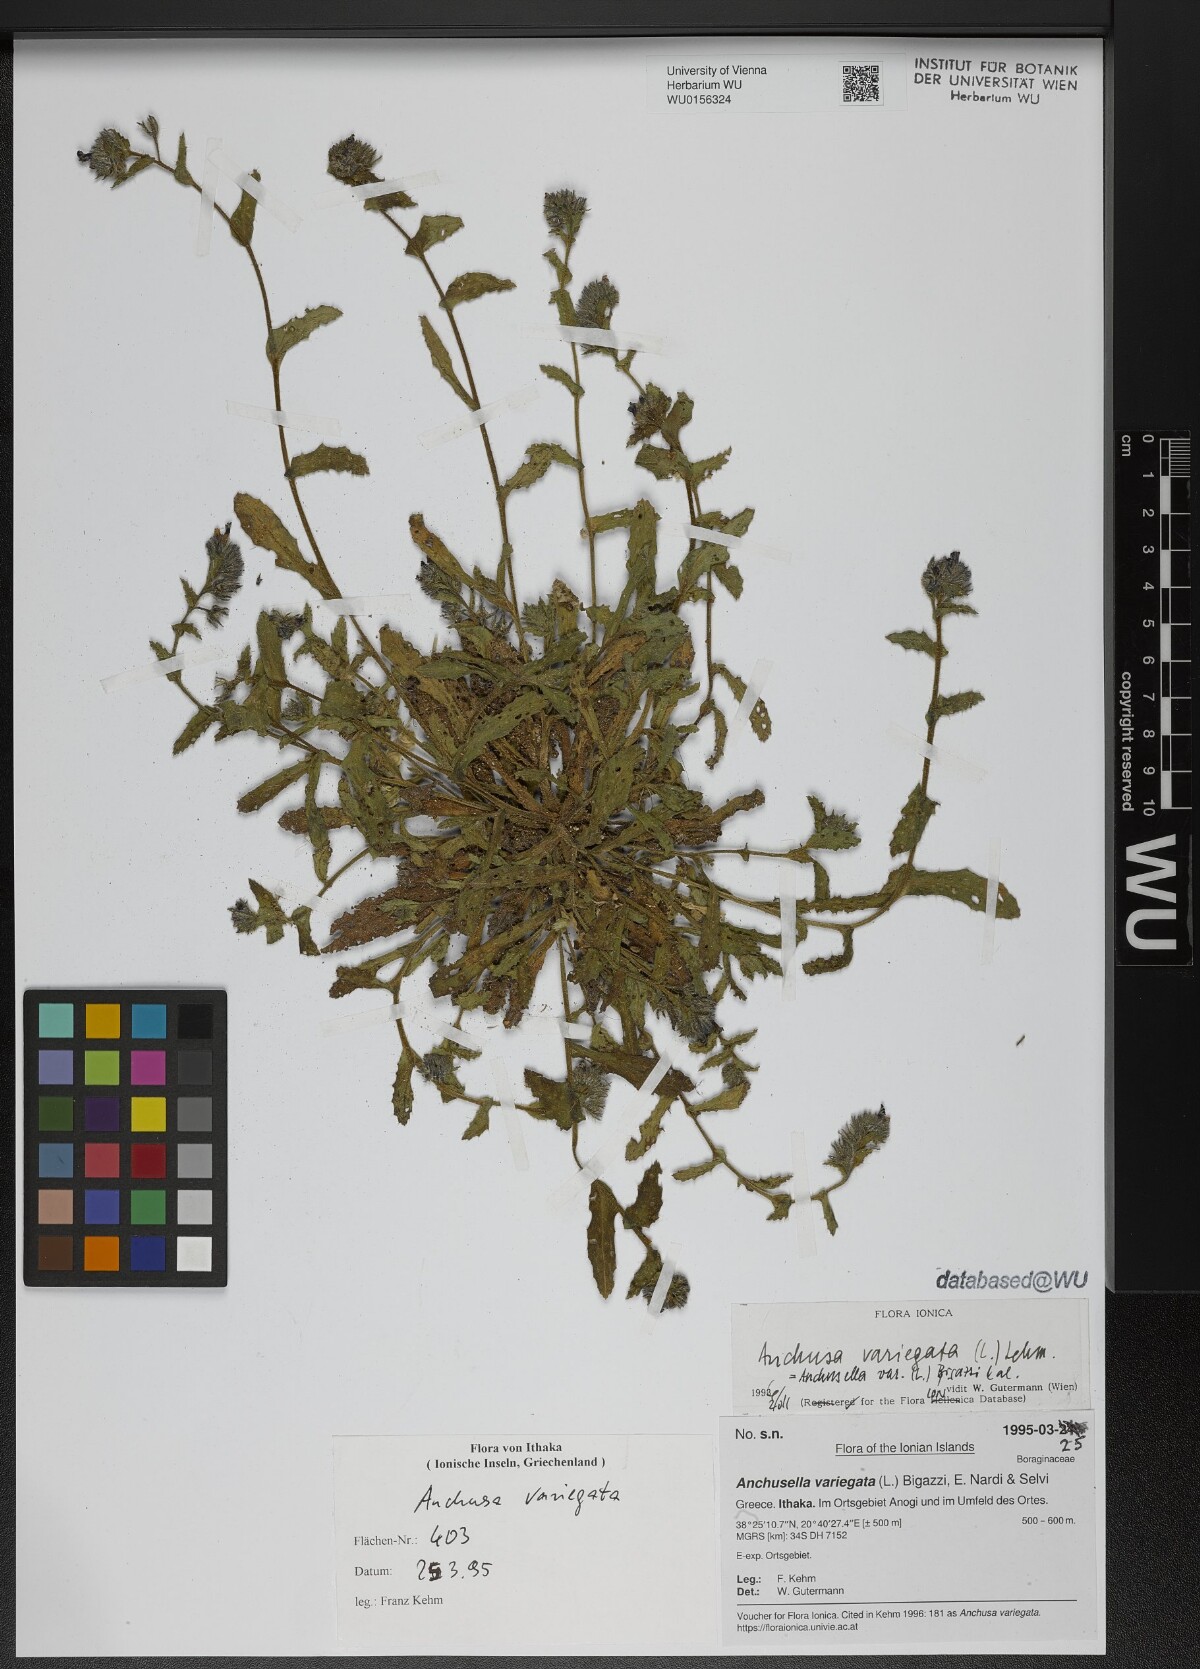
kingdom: Plantae
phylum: Tracheophyta
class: Magnoliopsida
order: Boraginales
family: Boraginaceae
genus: Anchusella
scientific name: Anchusella variegata
